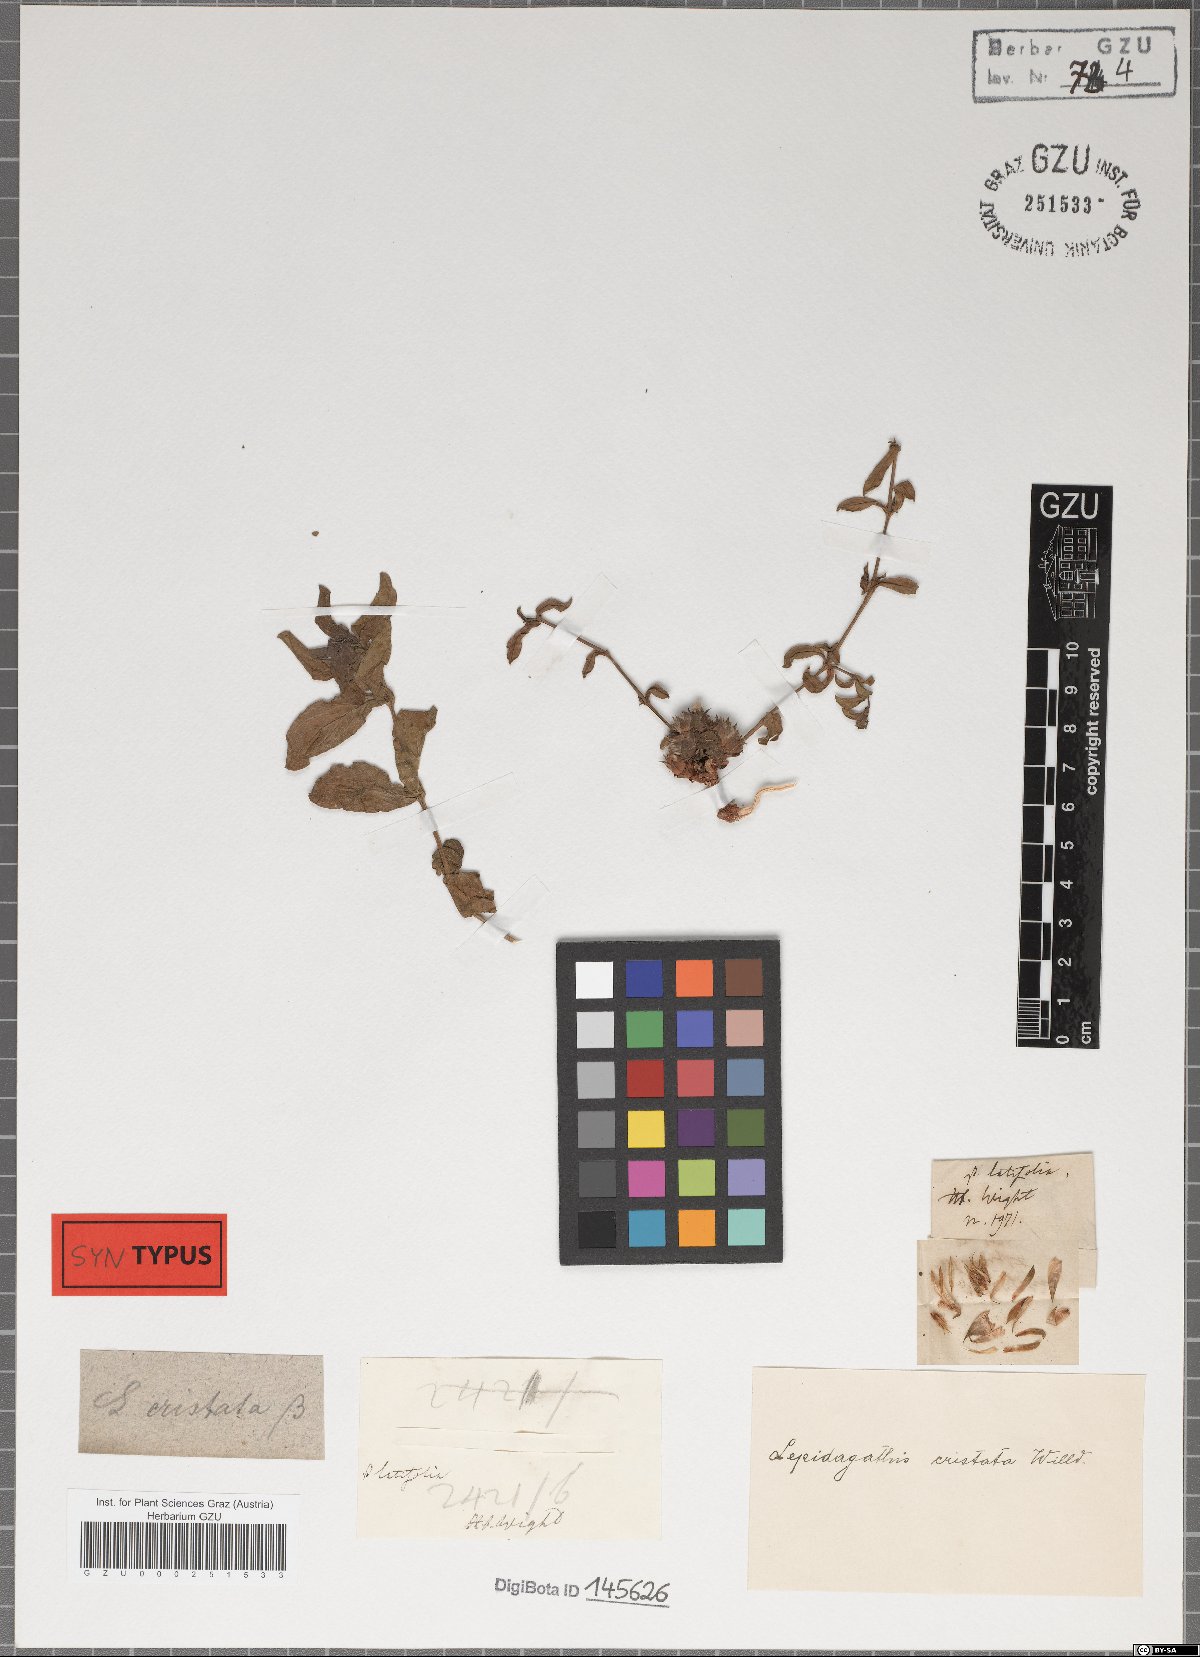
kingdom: Plantae
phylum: Tracheophyta
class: Magnoliopsida
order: Lamiales
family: Acanthaceae
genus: Lepidagathis
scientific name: Lepidagathis cristata
